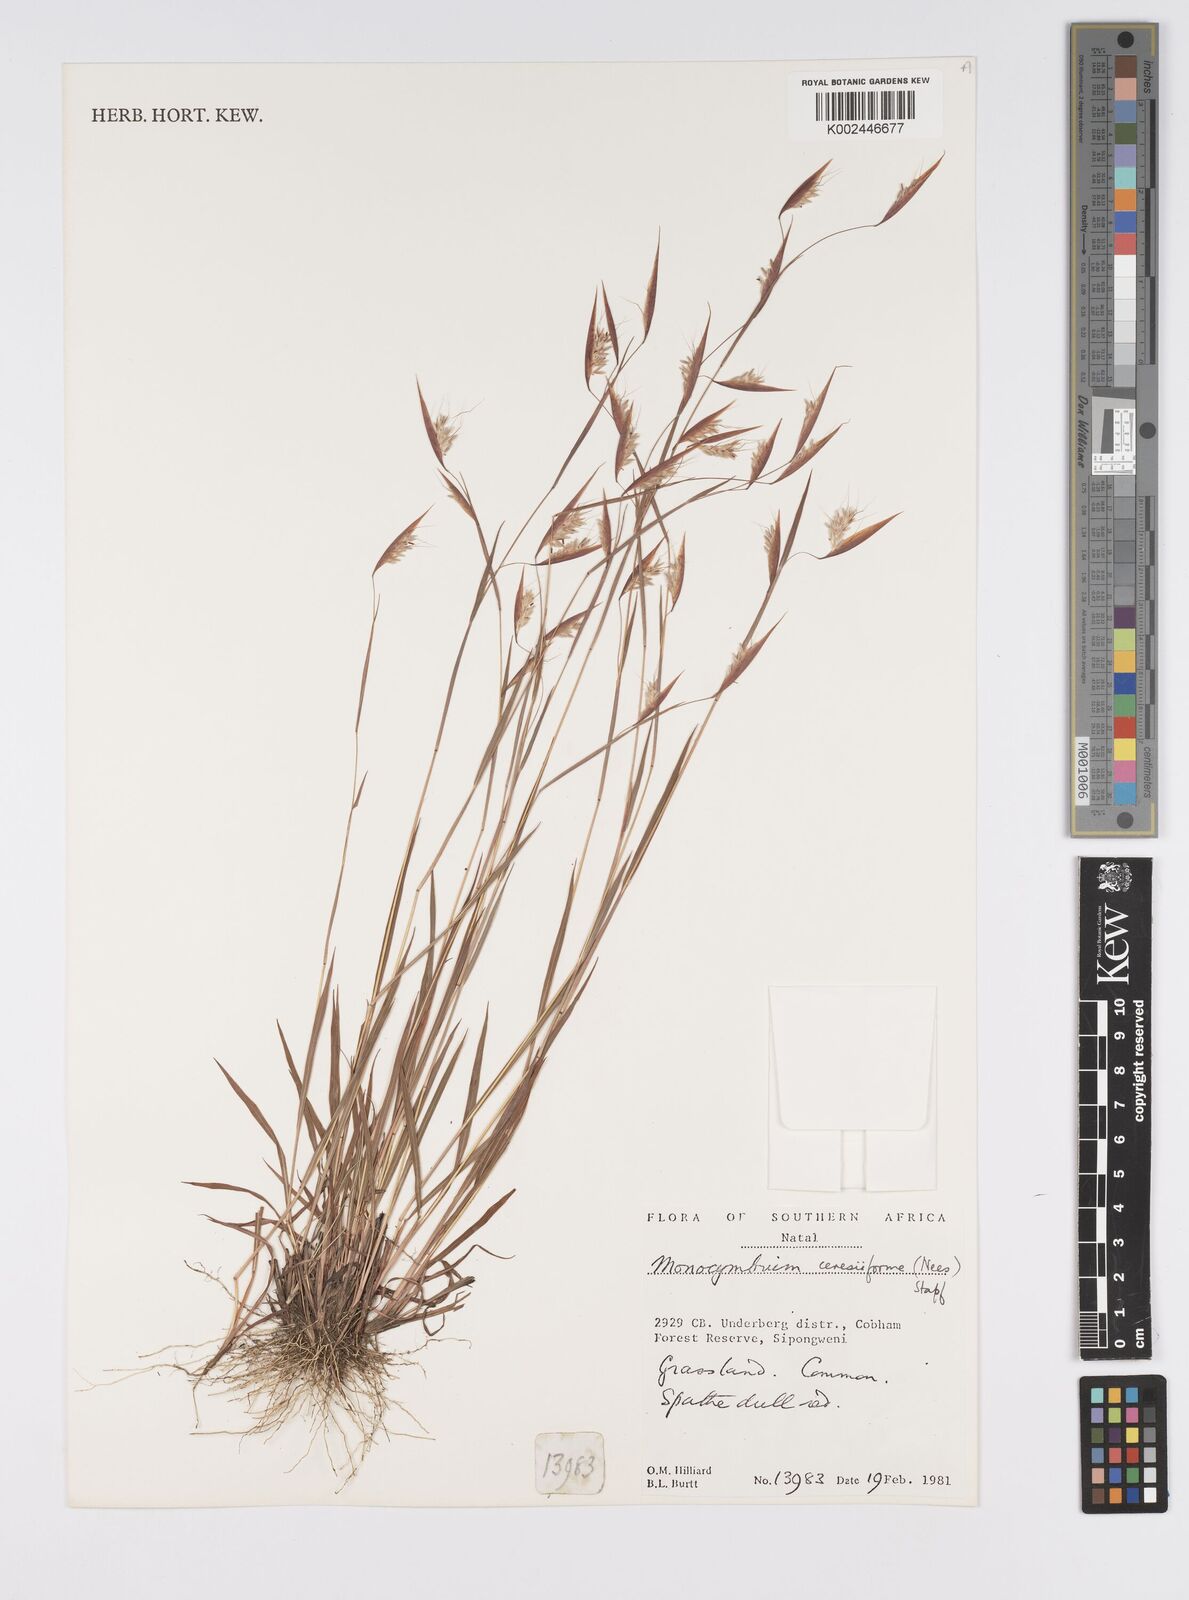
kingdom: Plantae
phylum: Tracheophyta
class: Liliopsida
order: Poales
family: Poaceae
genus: Monocymbium
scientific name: Monocymbium ceresiiforme
